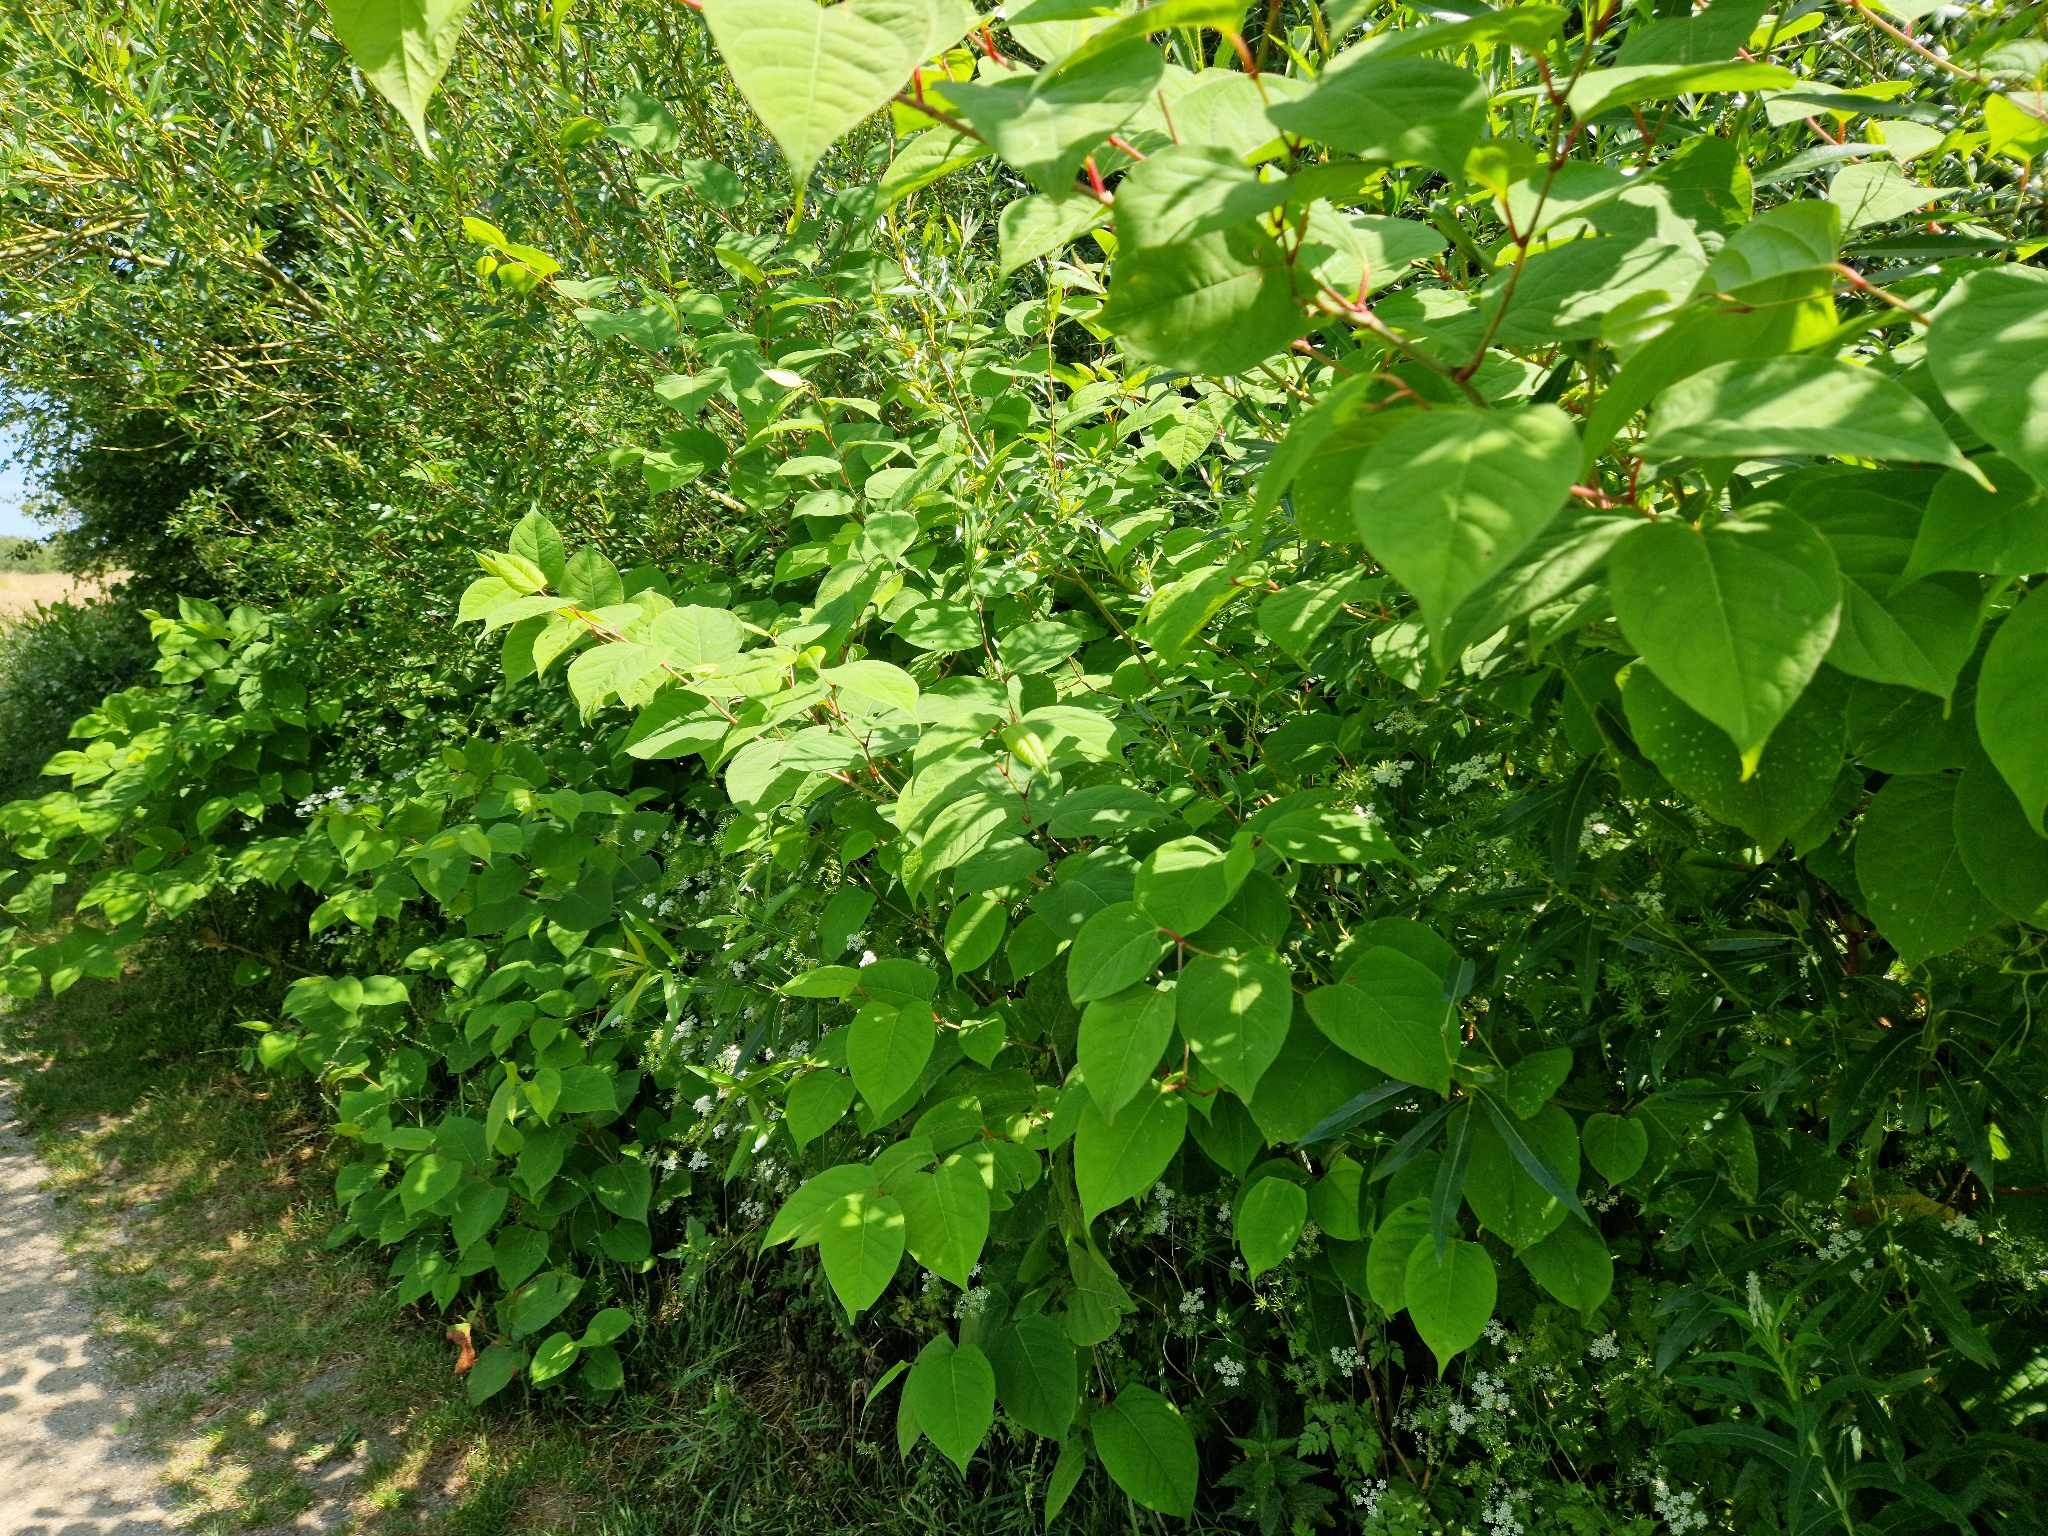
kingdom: Plantae
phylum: Tracheophyta
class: Magnoliopsida
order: Caryophyllales
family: Polygonaceae
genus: Reynoutria
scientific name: Reynoutria japonica
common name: Japan-pileurt
